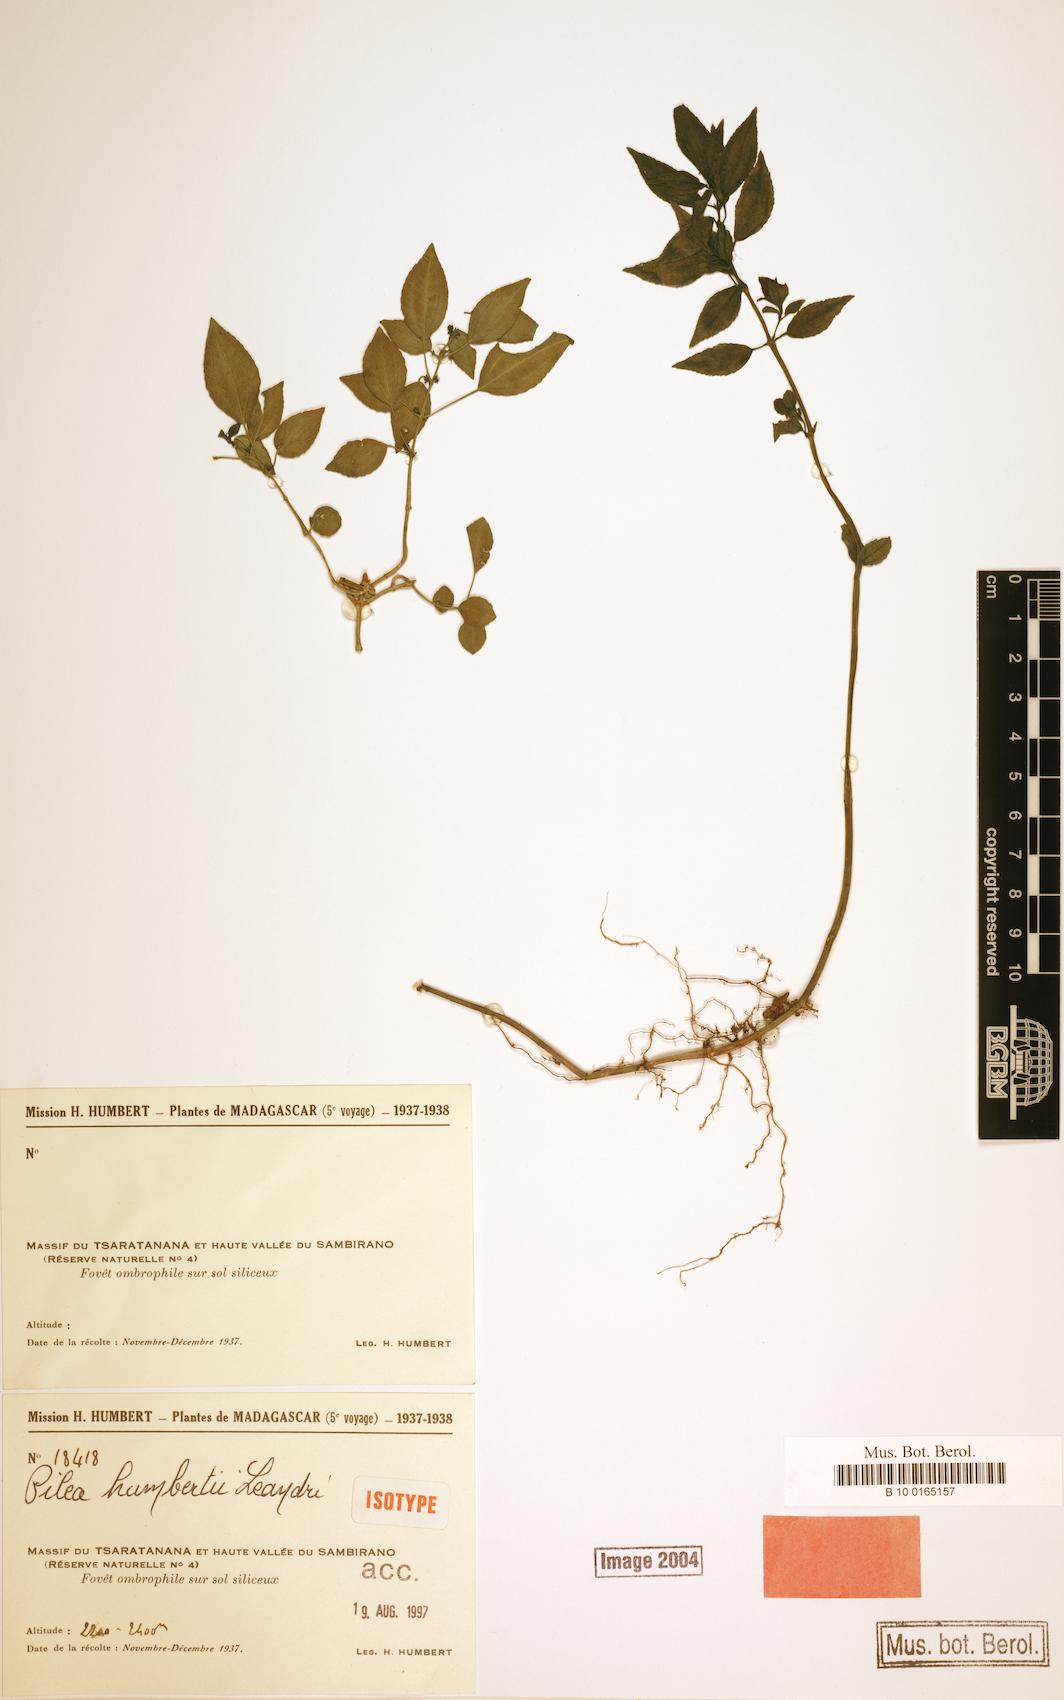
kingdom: Plantae
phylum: Tracheophyta
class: Magnoliopsida
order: Rosales
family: Urticaceae
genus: Pilea
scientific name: Pilea humbertii
